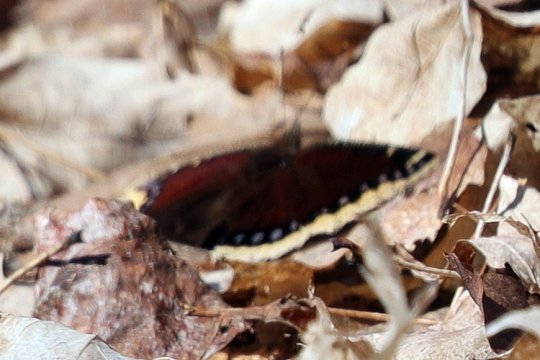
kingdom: Animalia
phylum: Arthropoda
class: Insecta
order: Lepidoptera
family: Nymphalidae
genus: Nymphalis
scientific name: Nymphalis antiopa
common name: Mourning Cloak
